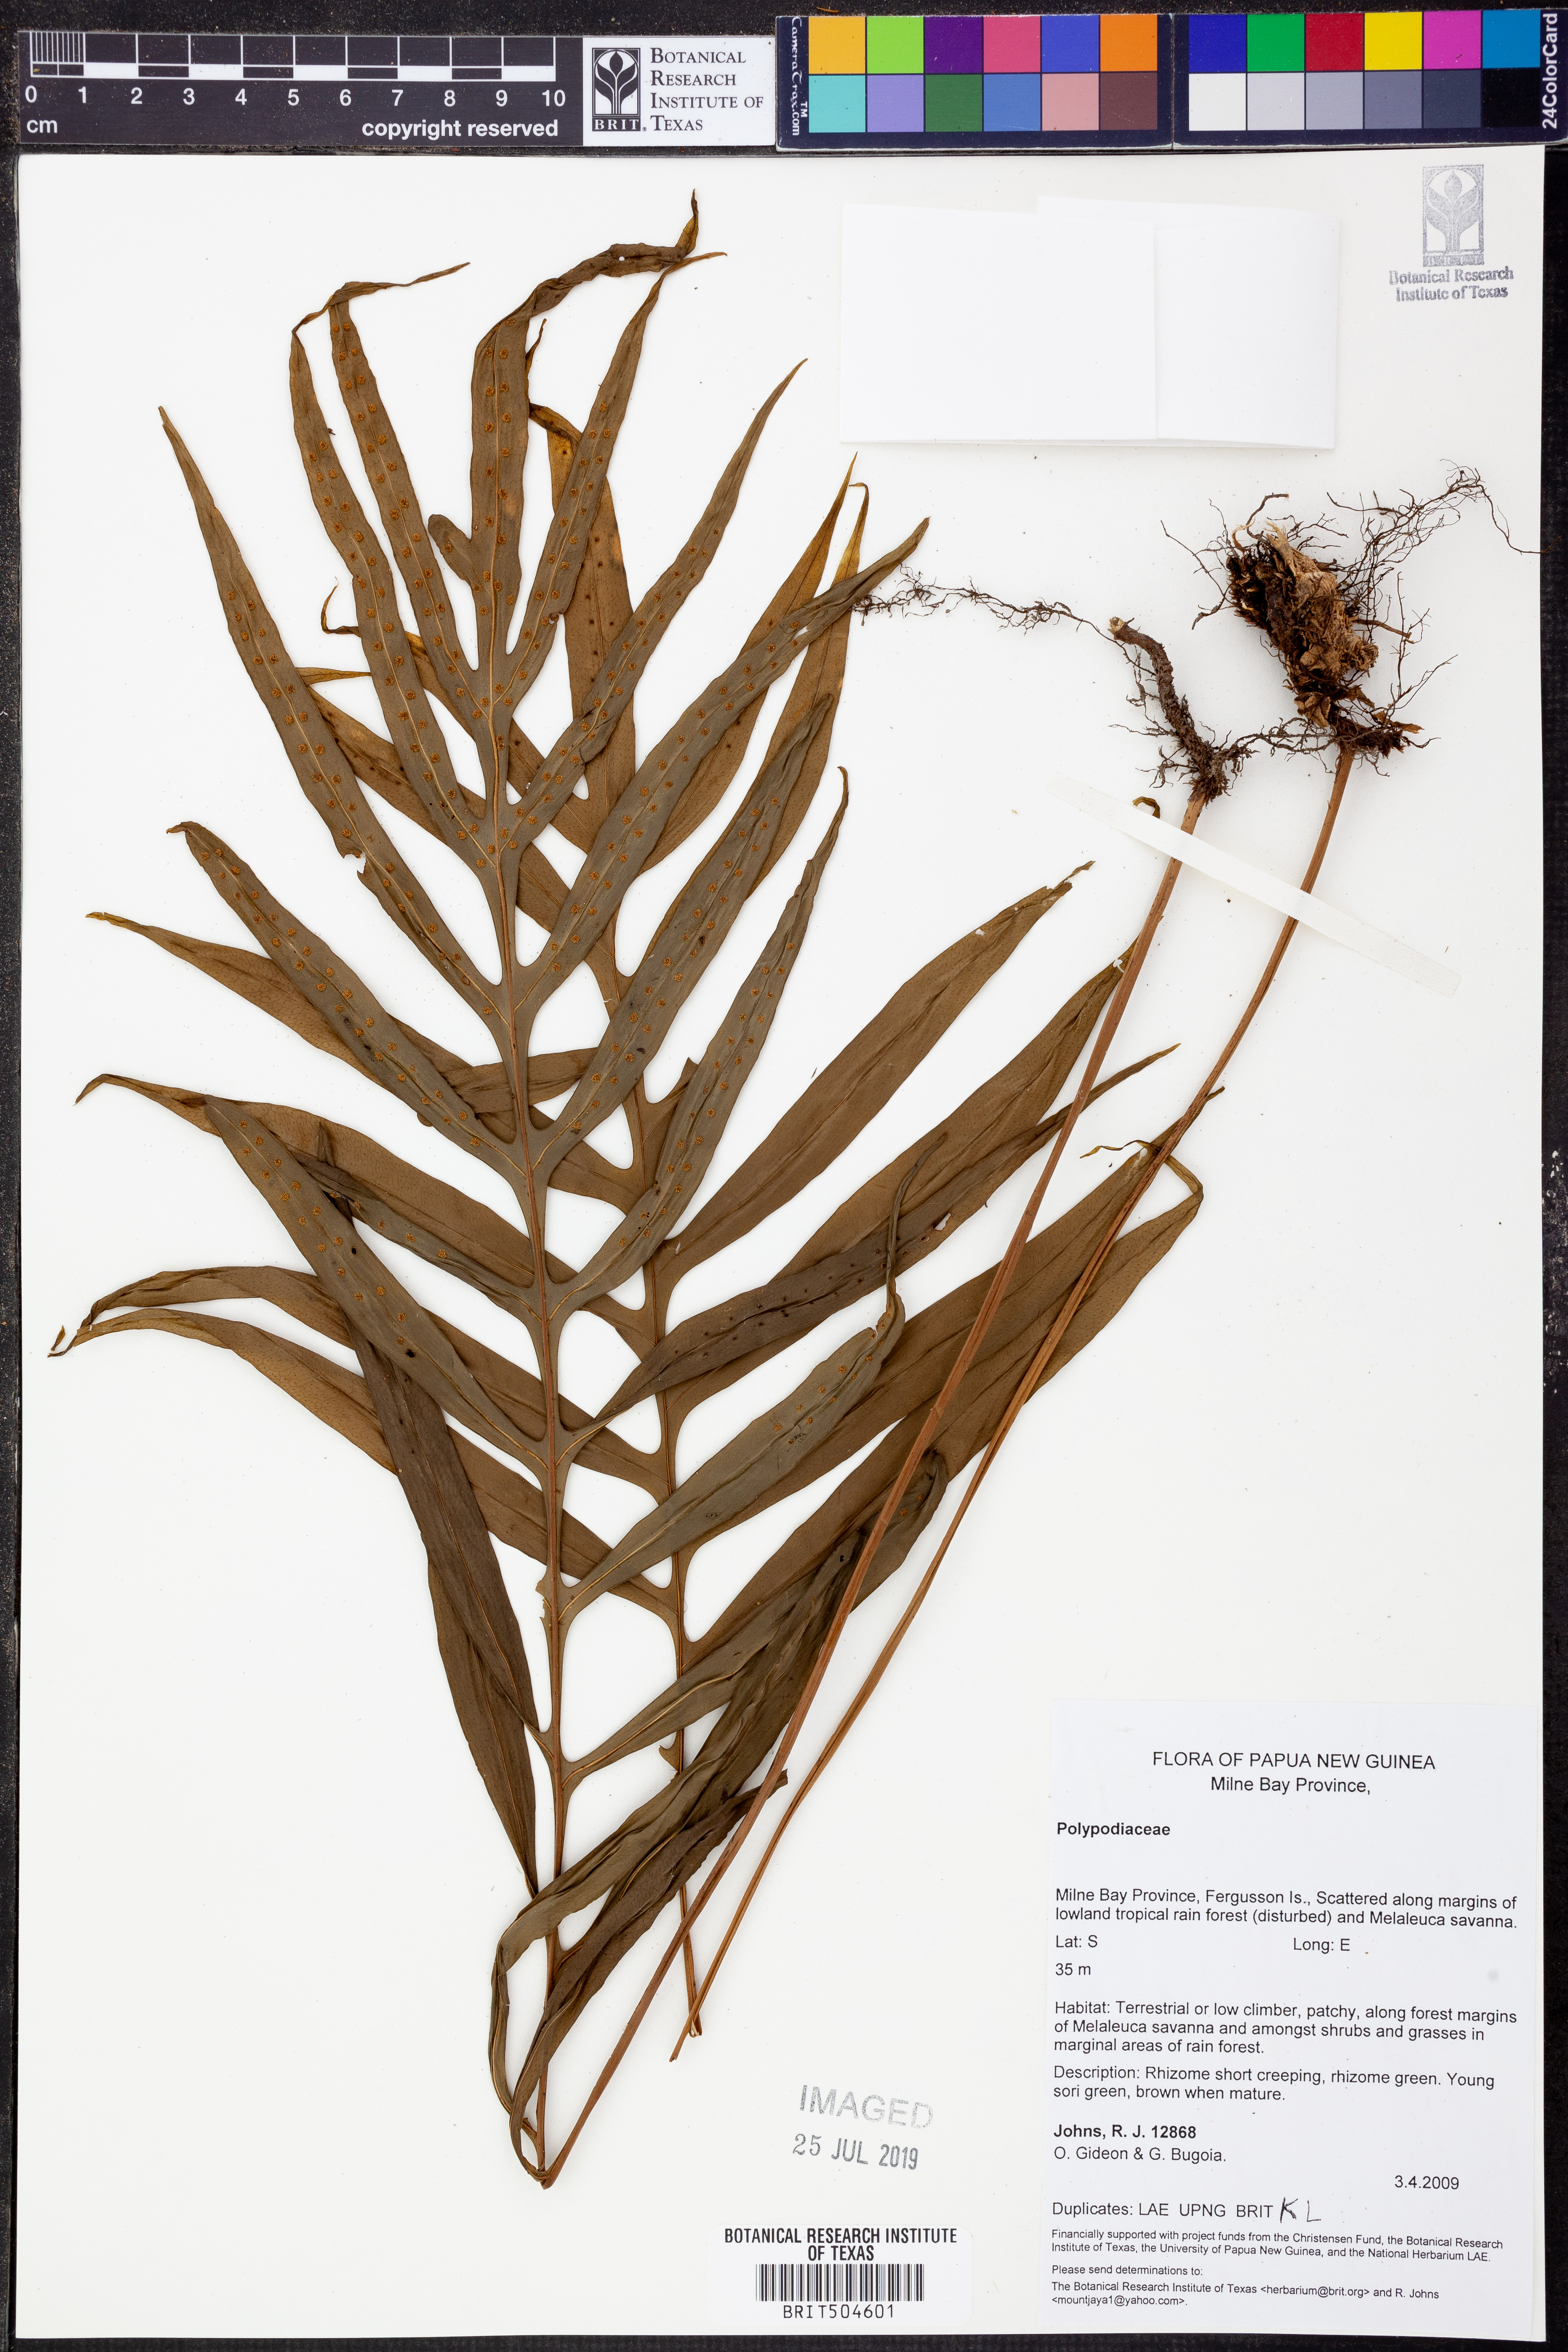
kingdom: Plantae
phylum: Tracheophyta
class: Polypodiopsida
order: Polypodiales
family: Polypodiaceae
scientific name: Polypodiaceae
